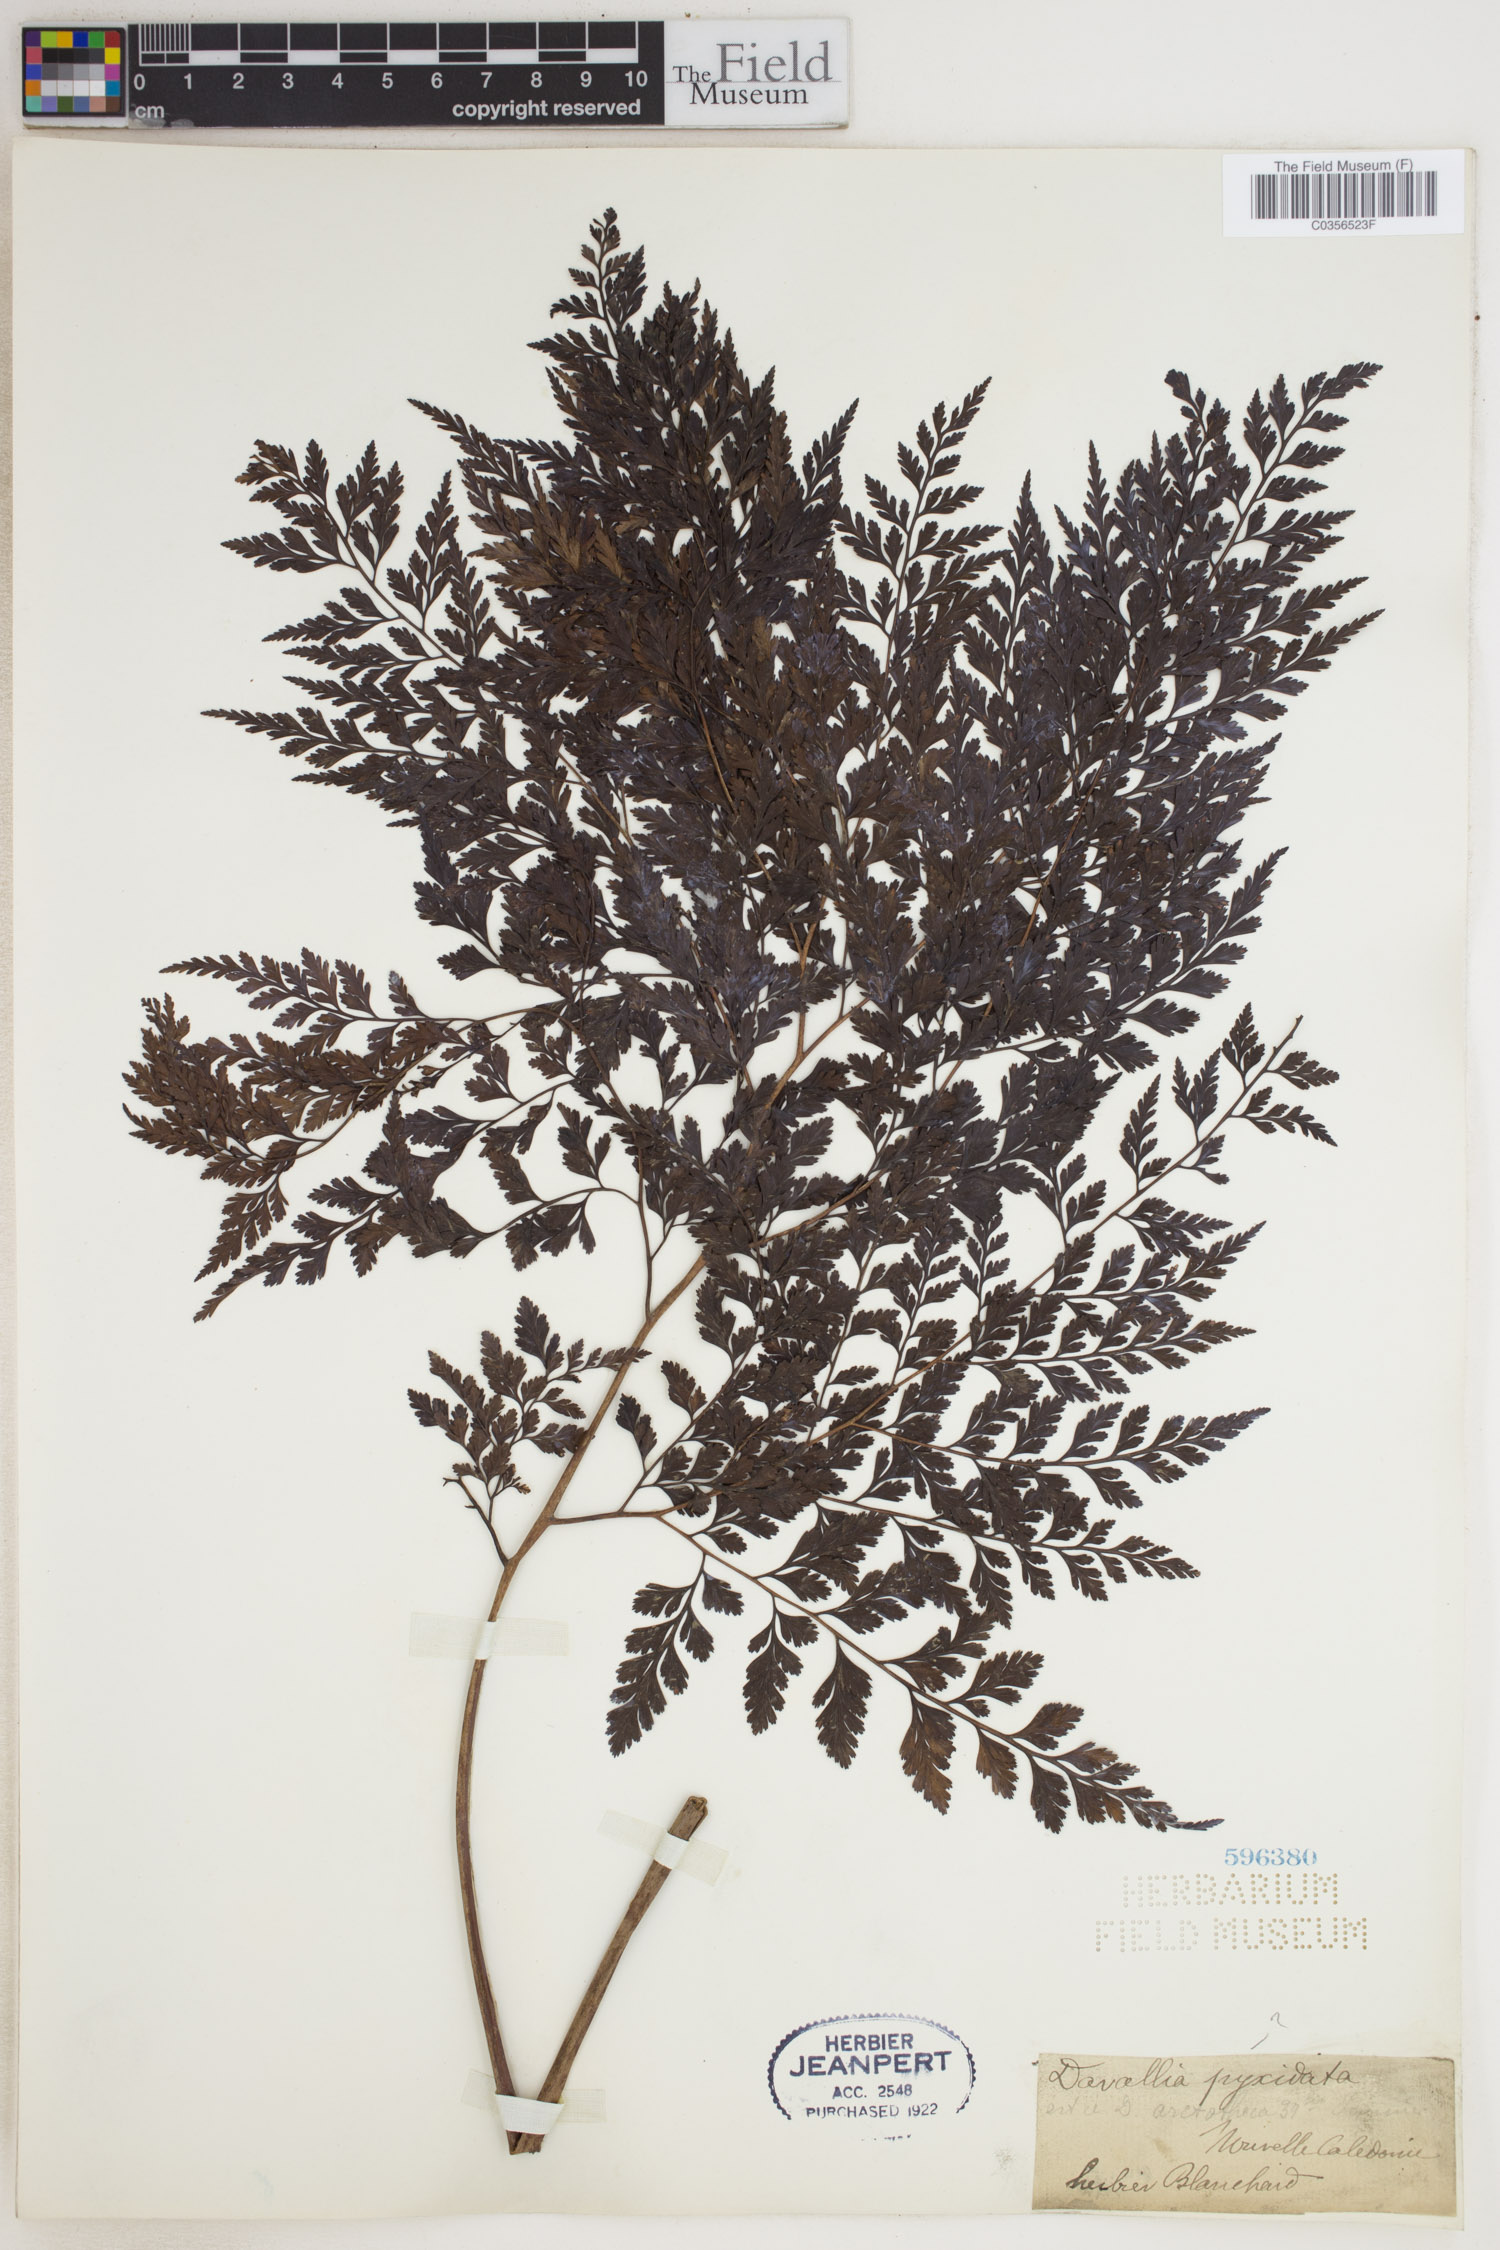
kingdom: Plantae
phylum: Tracheophyta
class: Polypodiopsida
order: Polypodiales
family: Davalliaceae
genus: Davallia
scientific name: Davallia pyxidata
